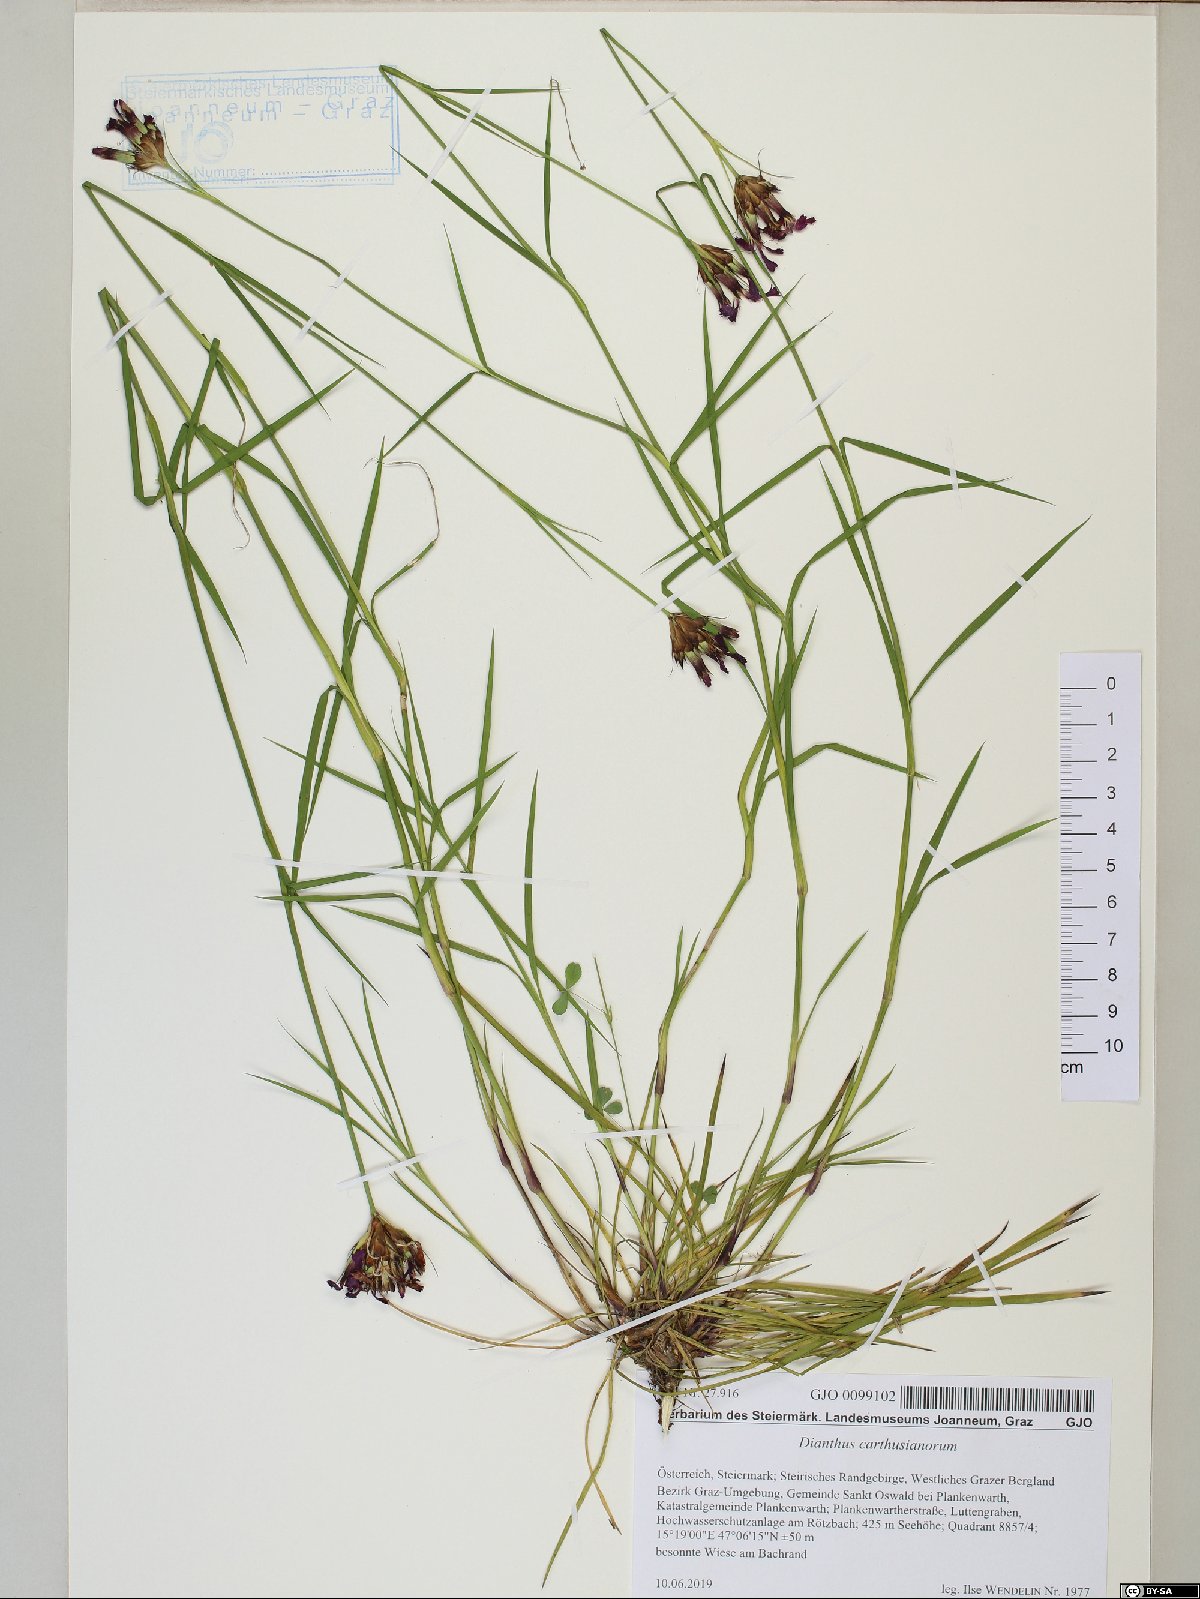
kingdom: Plantae
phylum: Tracheophyta
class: Magnoliopsida
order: Caryophyllales
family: Caryophyllaceae
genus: Dianthus
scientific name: Dianthus carthusianorum
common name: Carthusian pink
